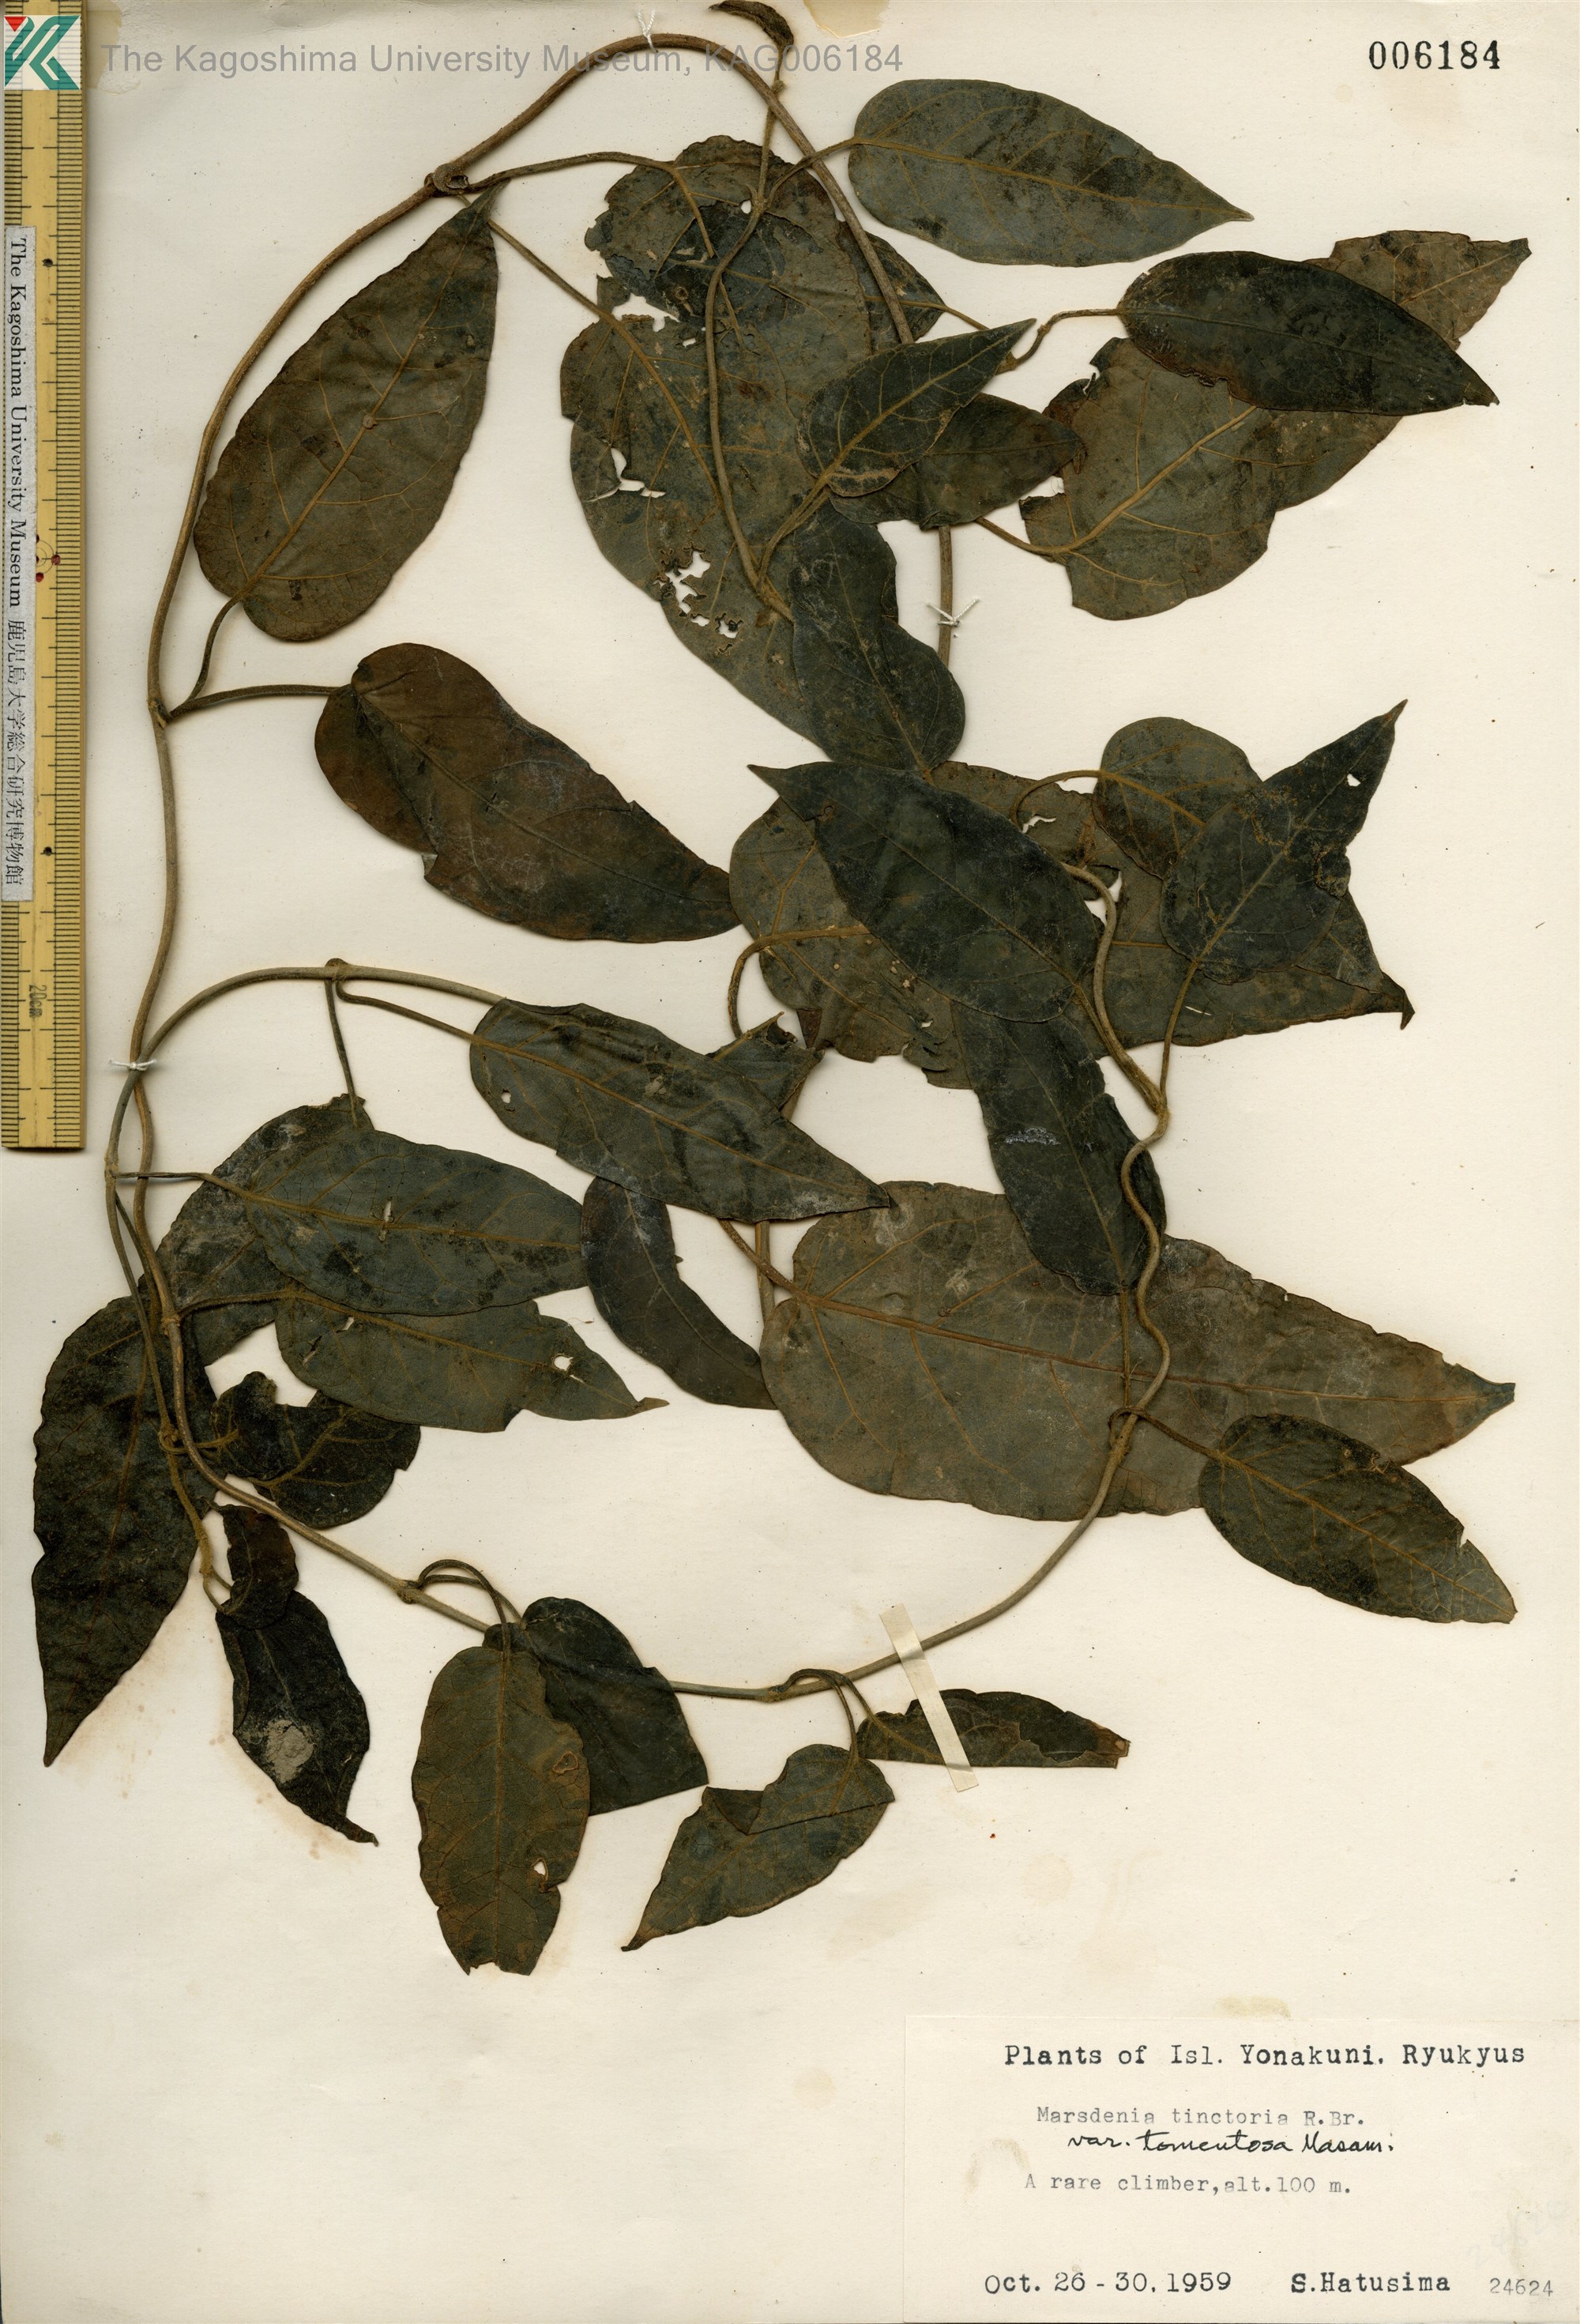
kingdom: Plantae
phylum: Tracheophyta
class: Magnoliopsida
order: Gentianales
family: Apocynaceae
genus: Marsdenia
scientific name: Marsdenia tinctoria
